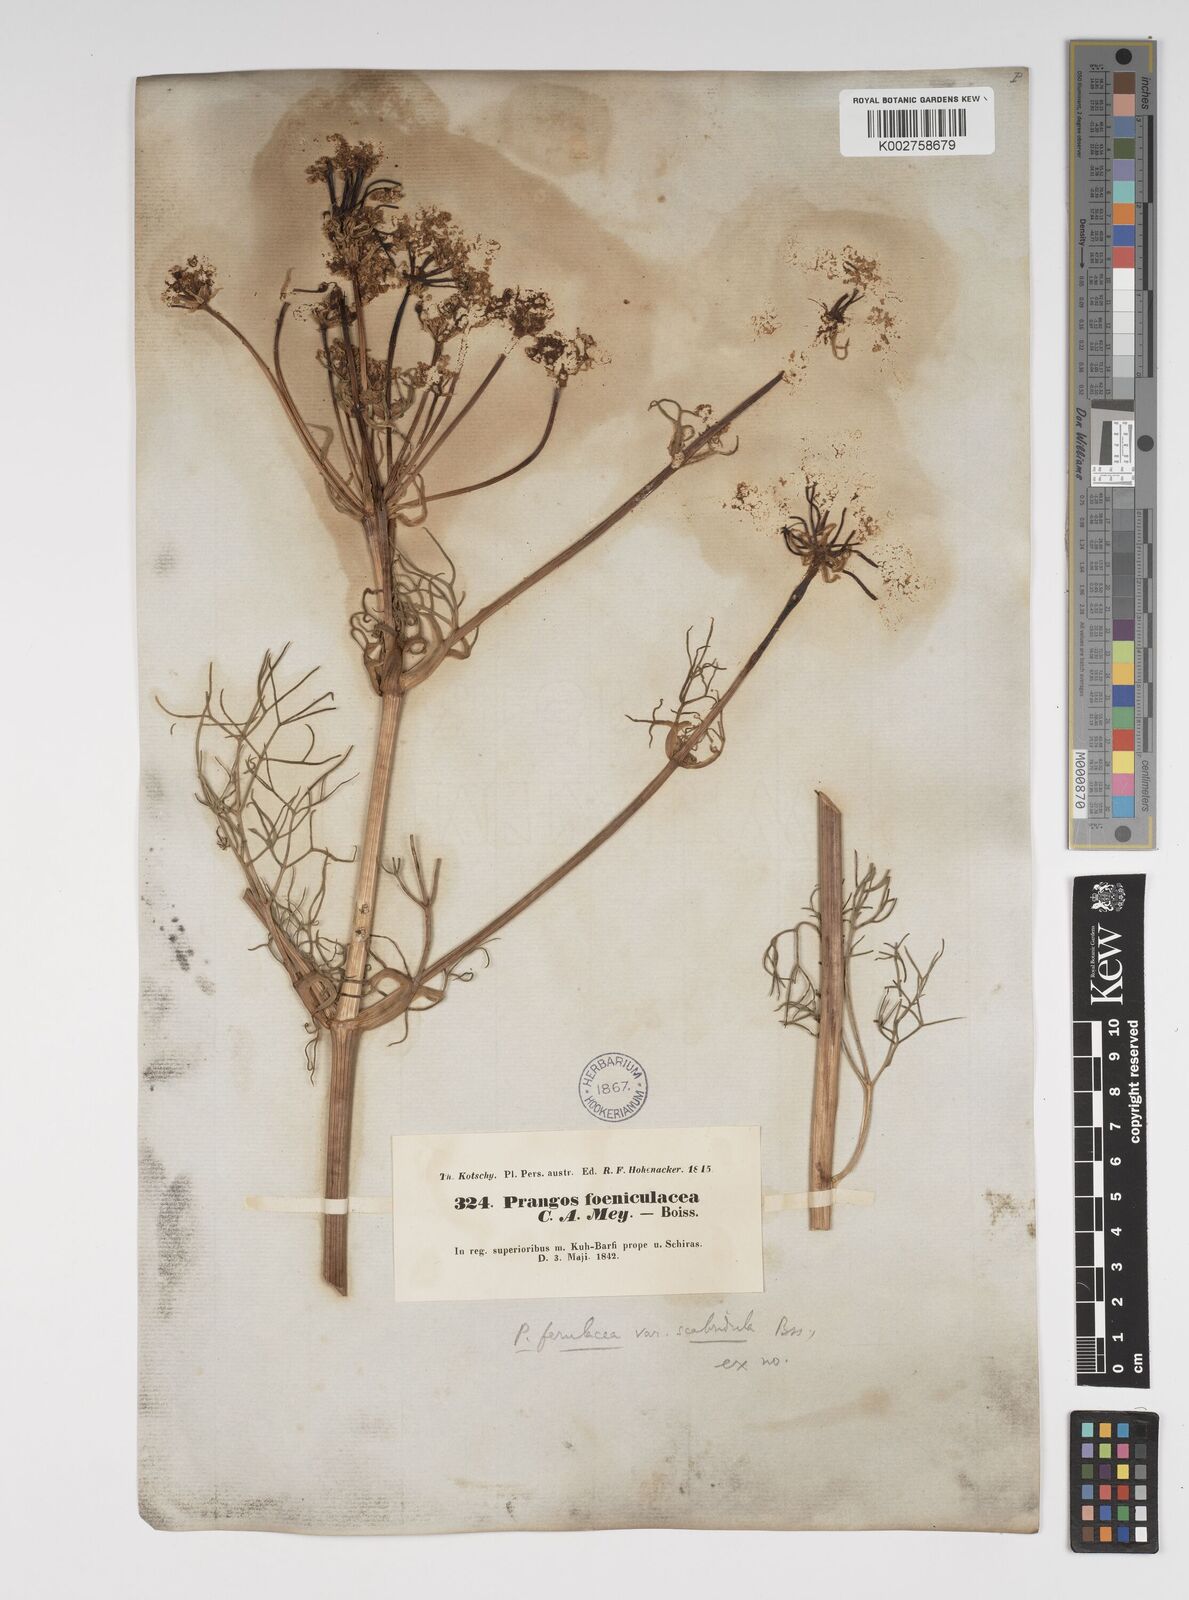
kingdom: Plantae
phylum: Tracheophyta
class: Magnoliopsida
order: Apiales
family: Apiaceae
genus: Prangos
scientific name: Prangos ferulacea
